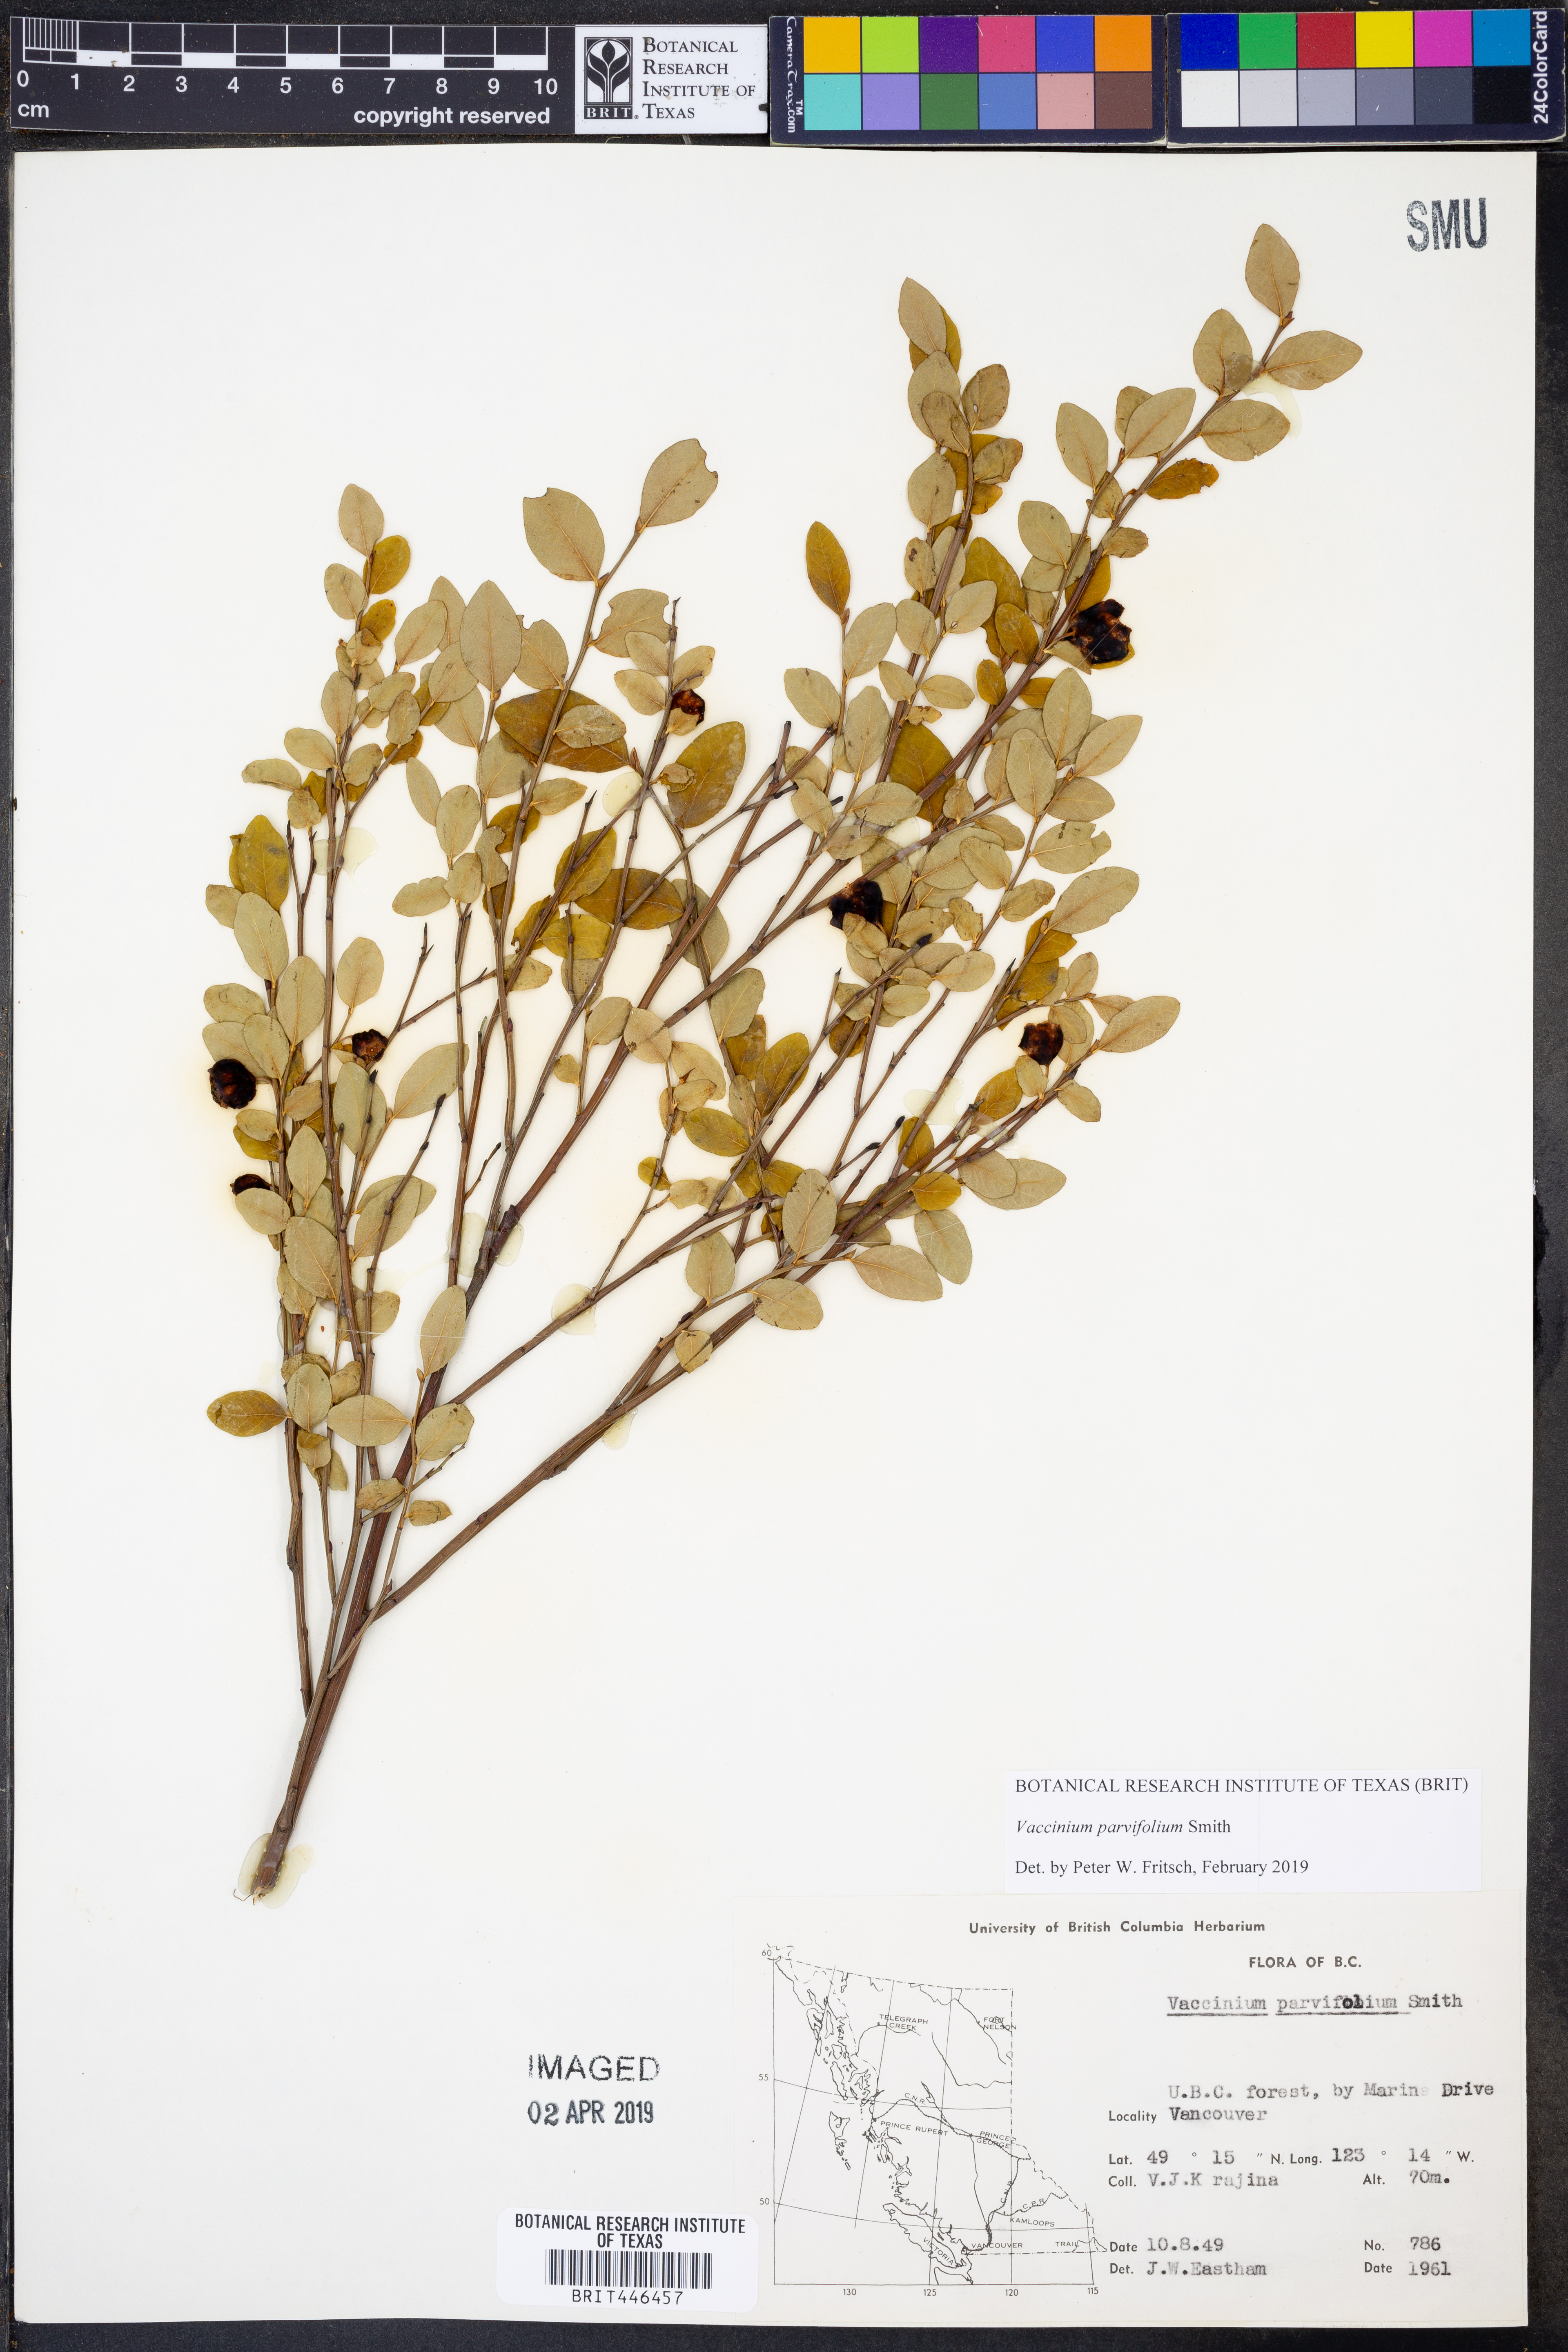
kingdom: Plantae
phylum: Tracheophyta
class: Magnoliopsida
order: Ericales
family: Ericaceae
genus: Vaccinium
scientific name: Vaccinium parvifolium
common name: Red-huckleberry
